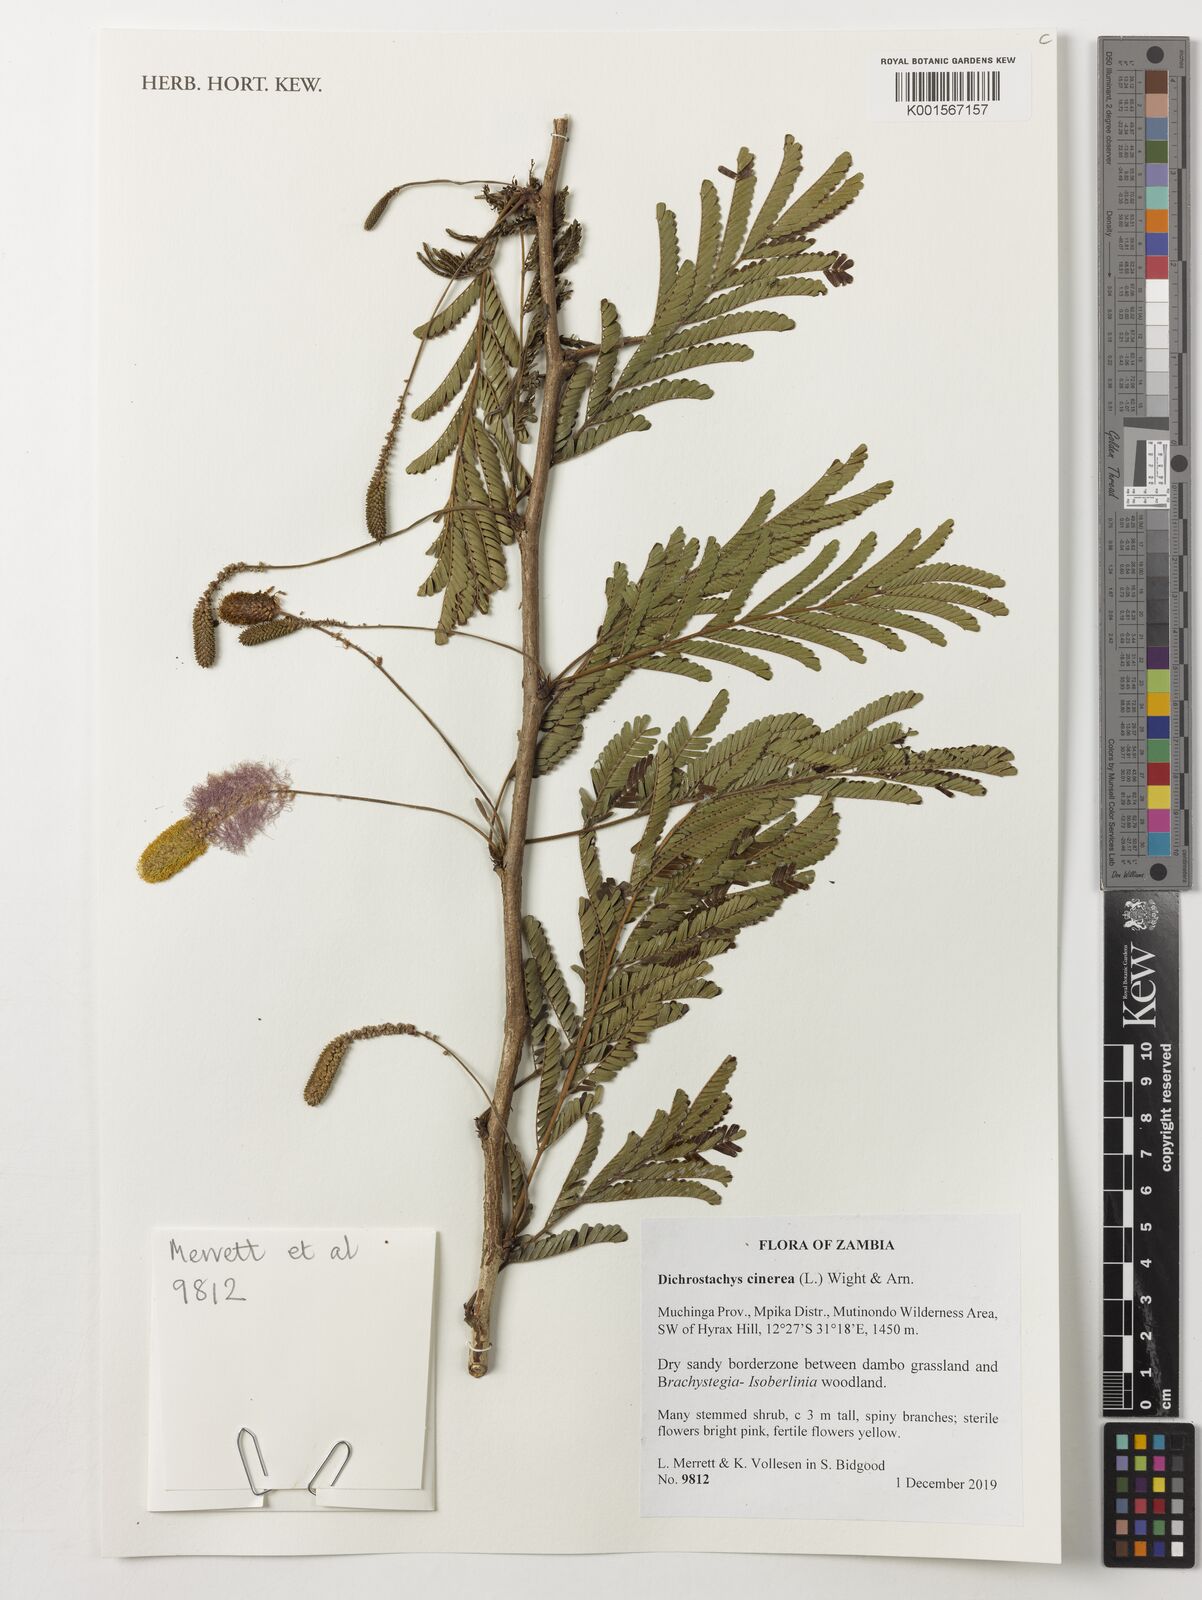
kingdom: Plantae
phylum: Tracheophyta
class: Magnoliopsida
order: Fabales
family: Fabaceae
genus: Dichrostachys
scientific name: Dichrostachys cinerea
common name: Sicklebush
